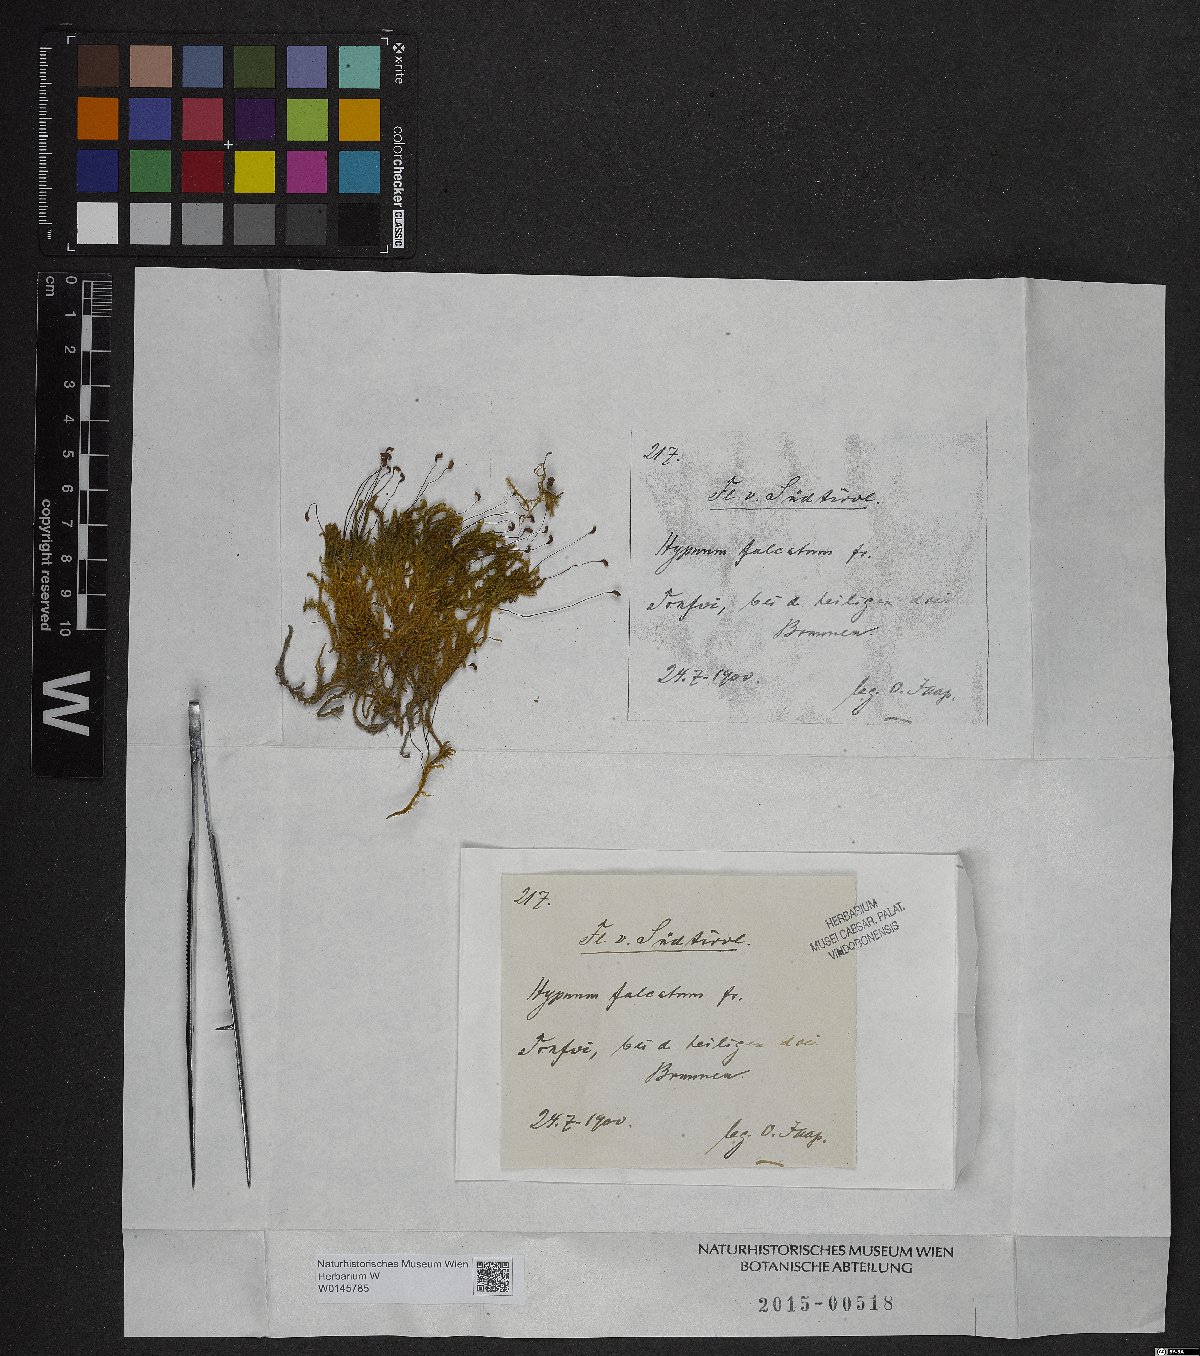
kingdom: Plantae
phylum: Bryophyta
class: Bryopsida
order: Hypnales
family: Amblystegiaceae
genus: Palustriella
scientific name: Palustriella falcata
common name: Curled hook-moss
